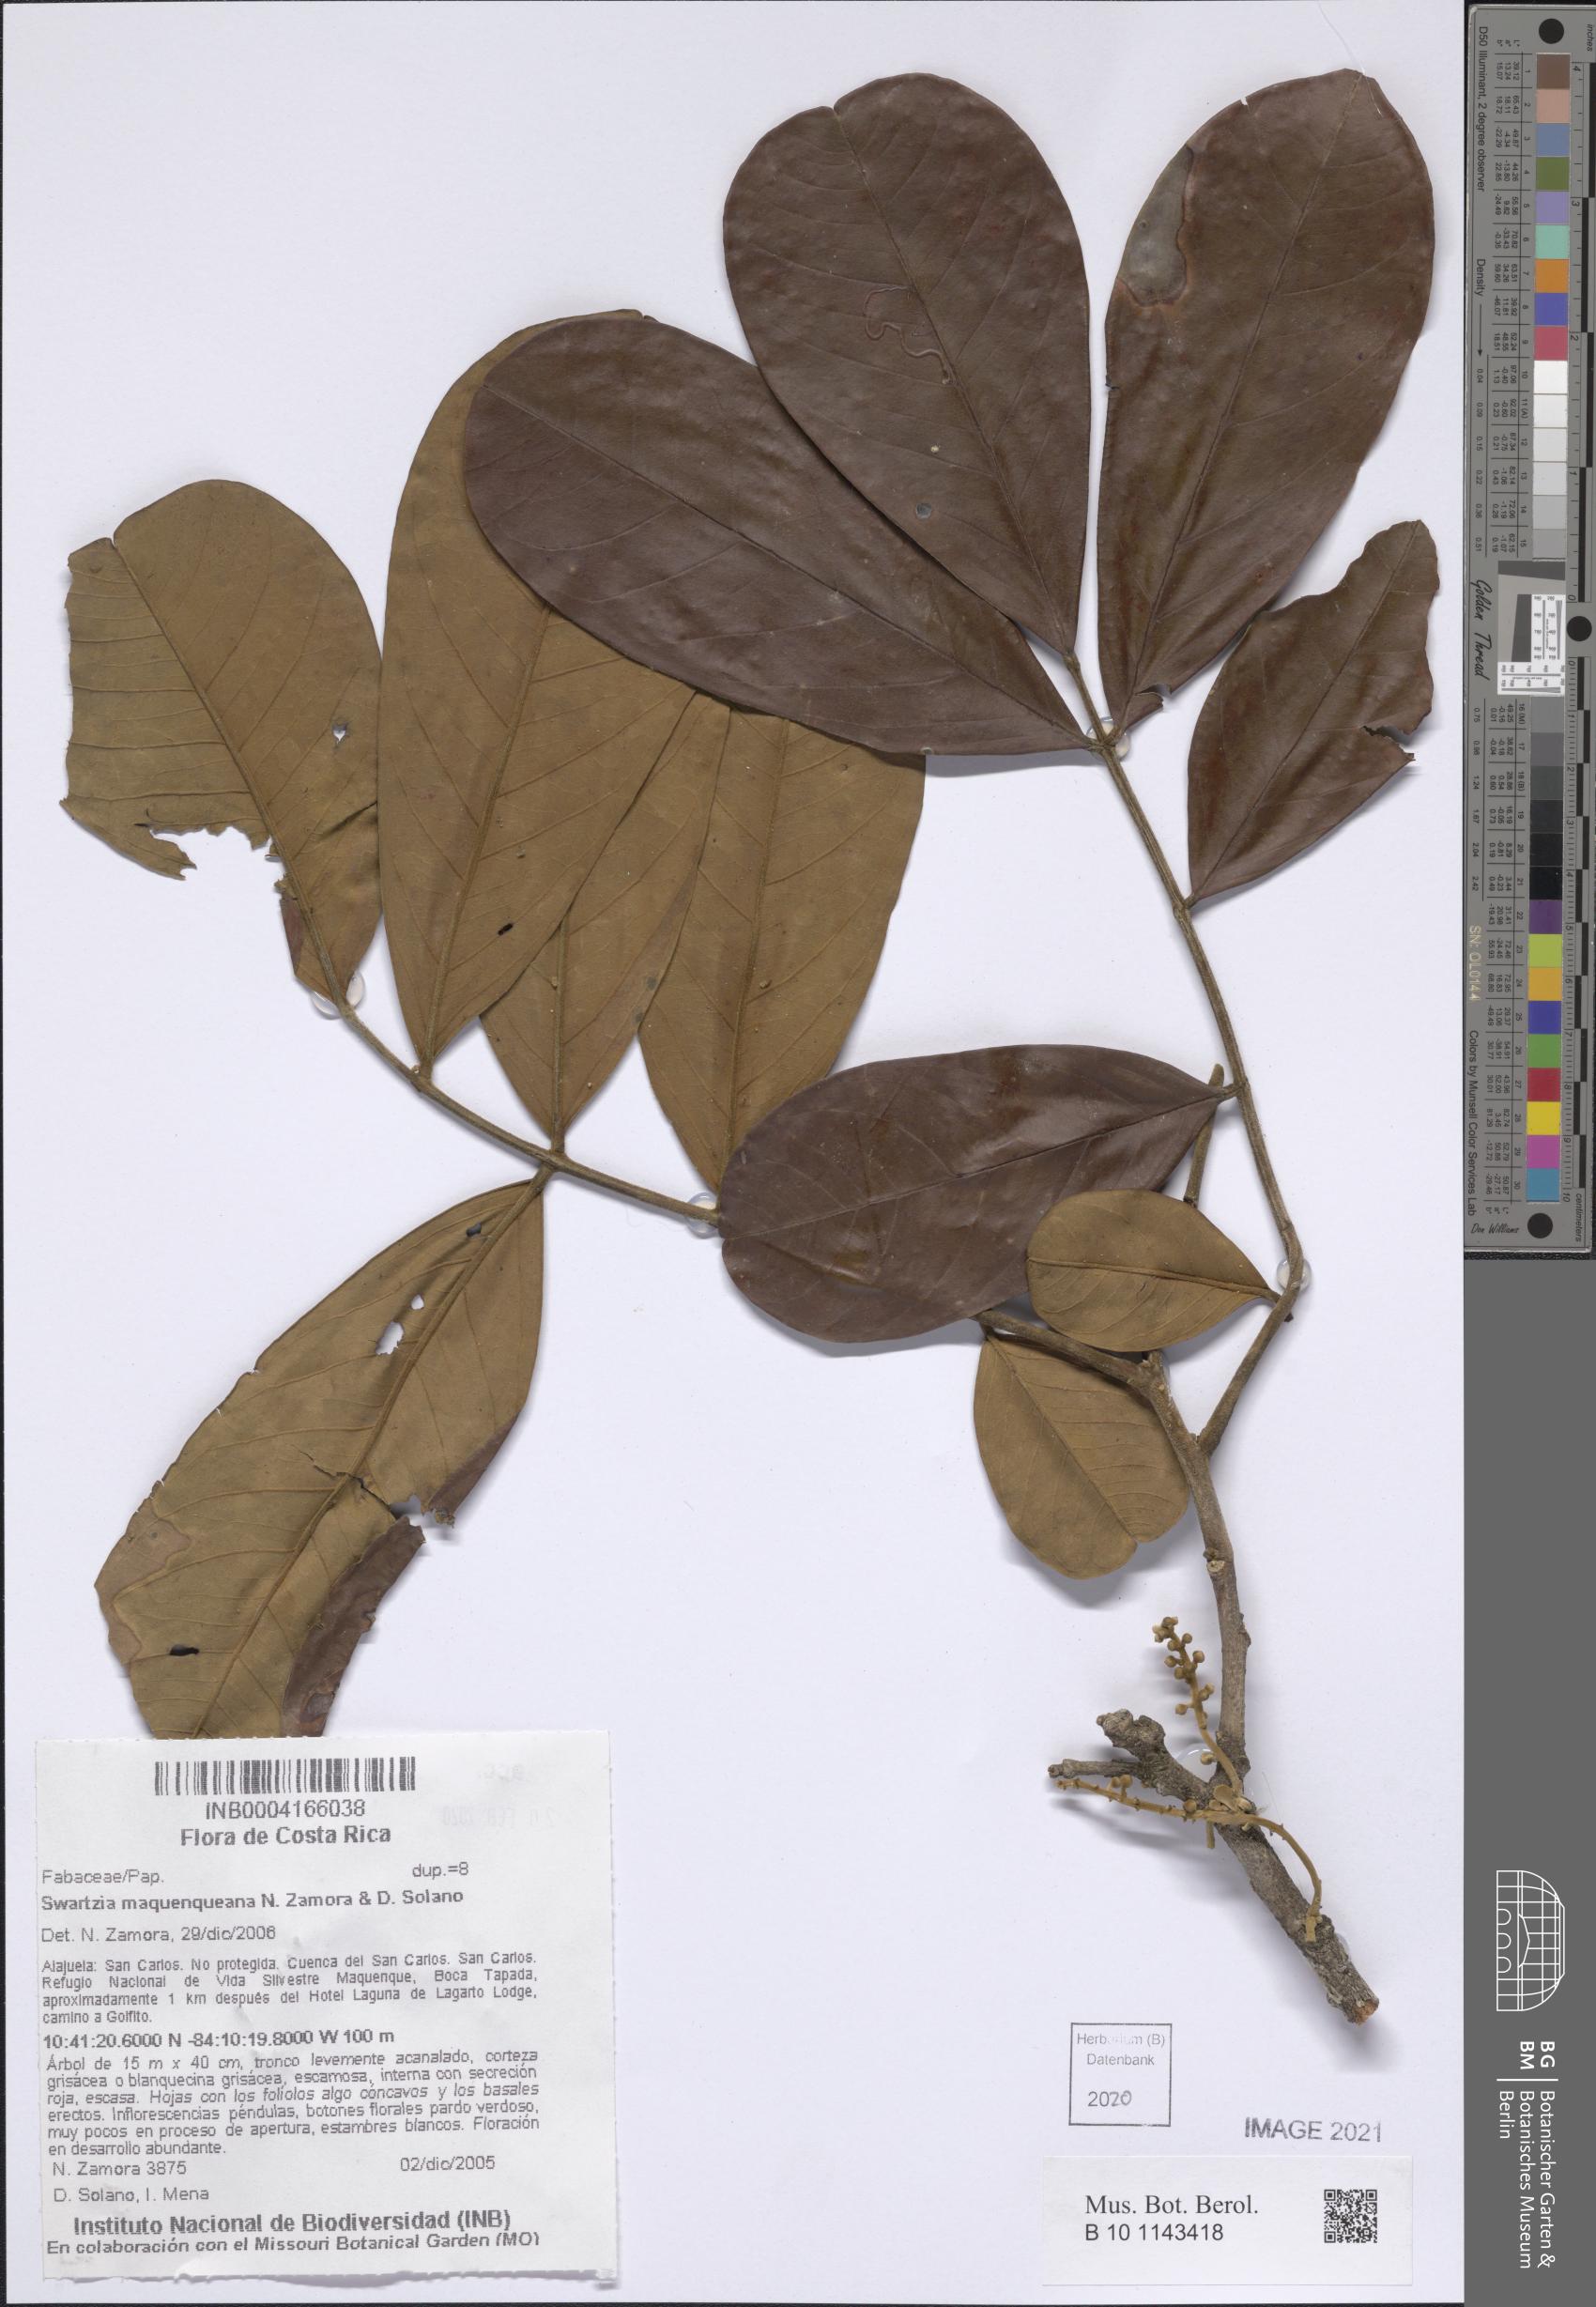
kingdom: Plantae
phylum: Tracheophyta
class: Magnoliopsida
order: Fabales
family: Fabaceae
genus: Swartzia
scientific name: Swartzia maquenqueana
